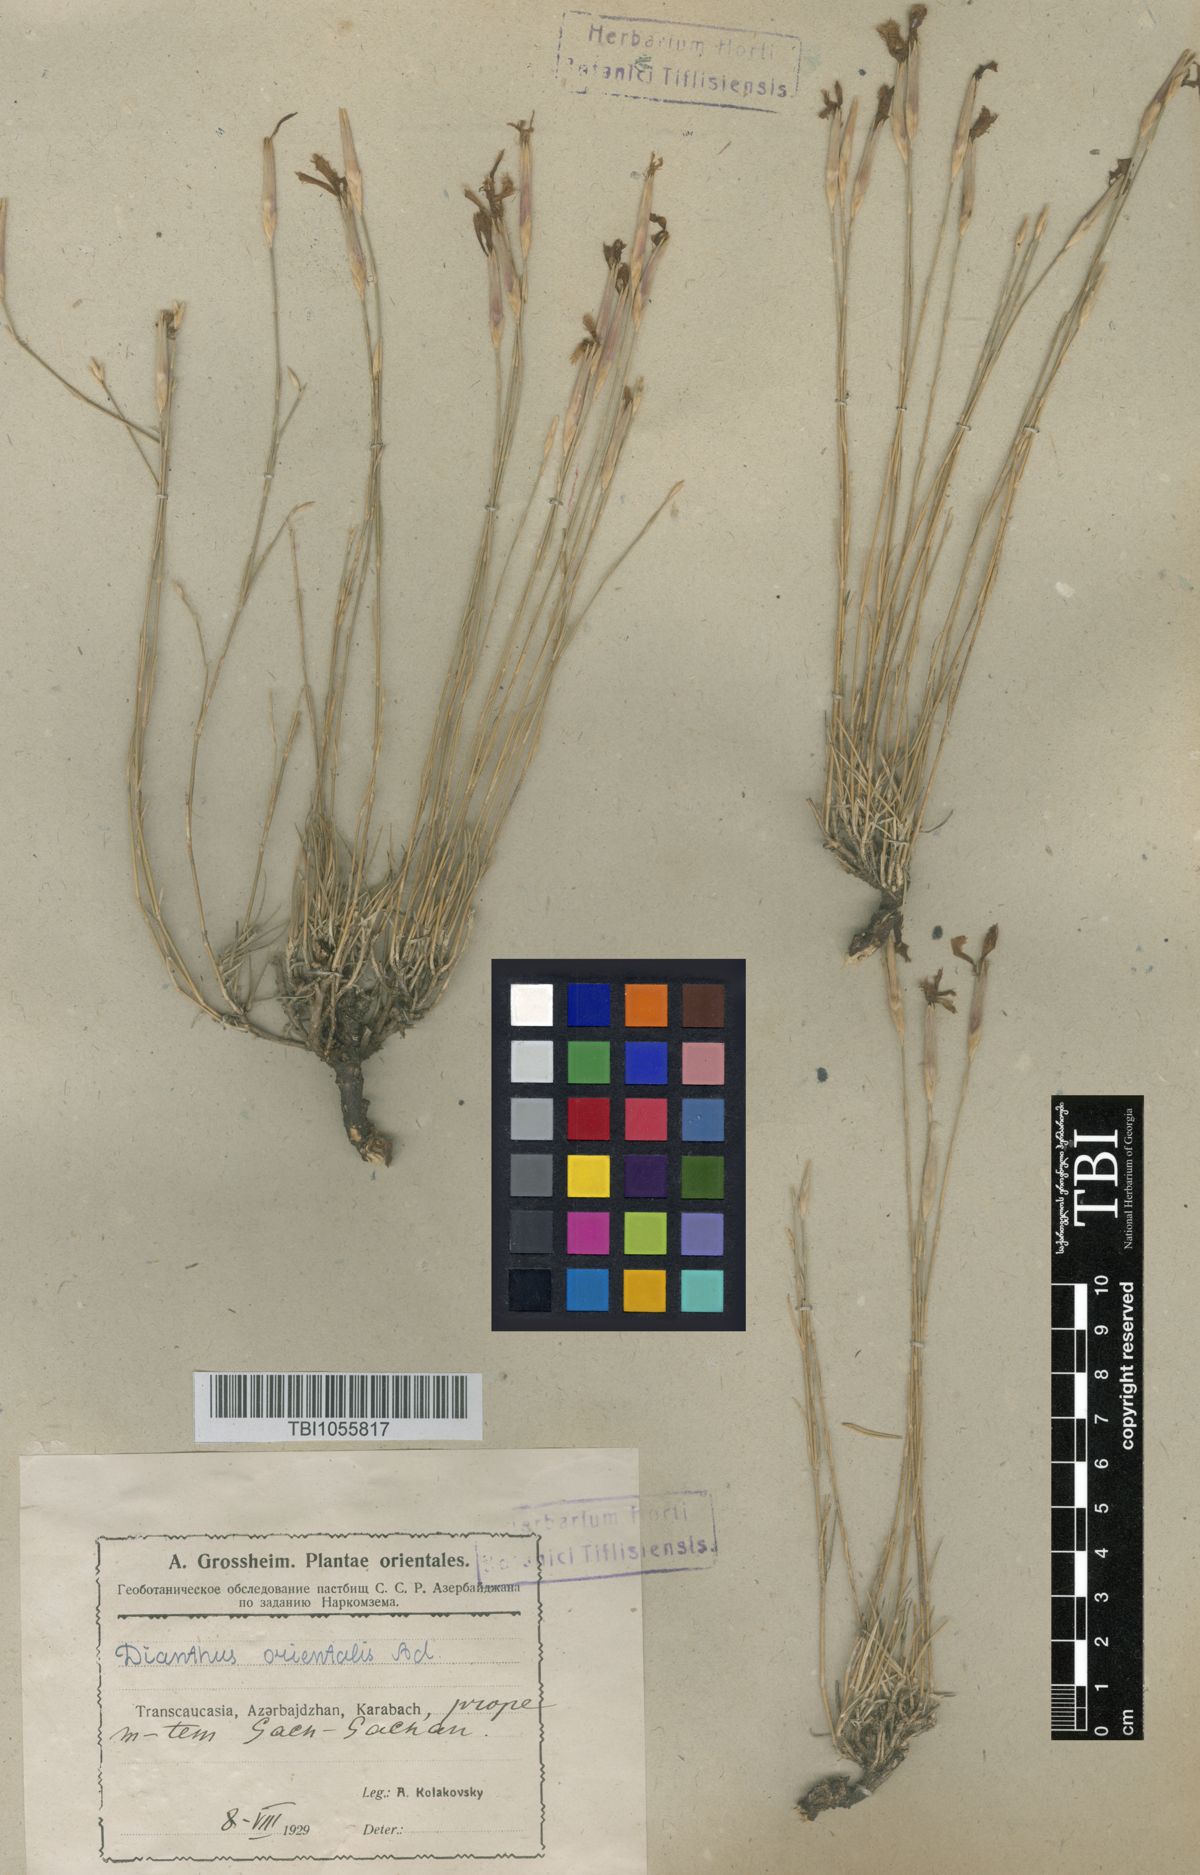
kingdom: Plantae
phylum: Tracheophyta
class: Magnoliopsida
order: Caryophyllales
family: Caryophyllaceae
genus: Dianthus
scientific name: Dianthus orientalis
